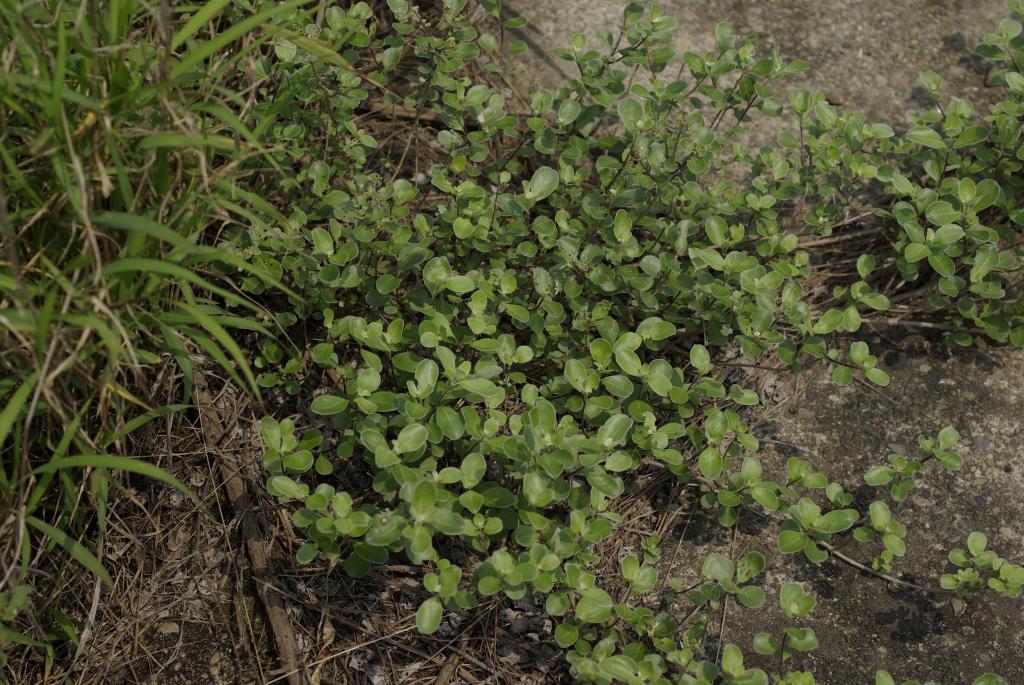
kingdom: Plantae
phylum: Tracheophyta
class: Magnoliopsida
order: Lamiales
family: Lamiaceae
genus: Vitex
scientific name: Vitex rotundifolia
